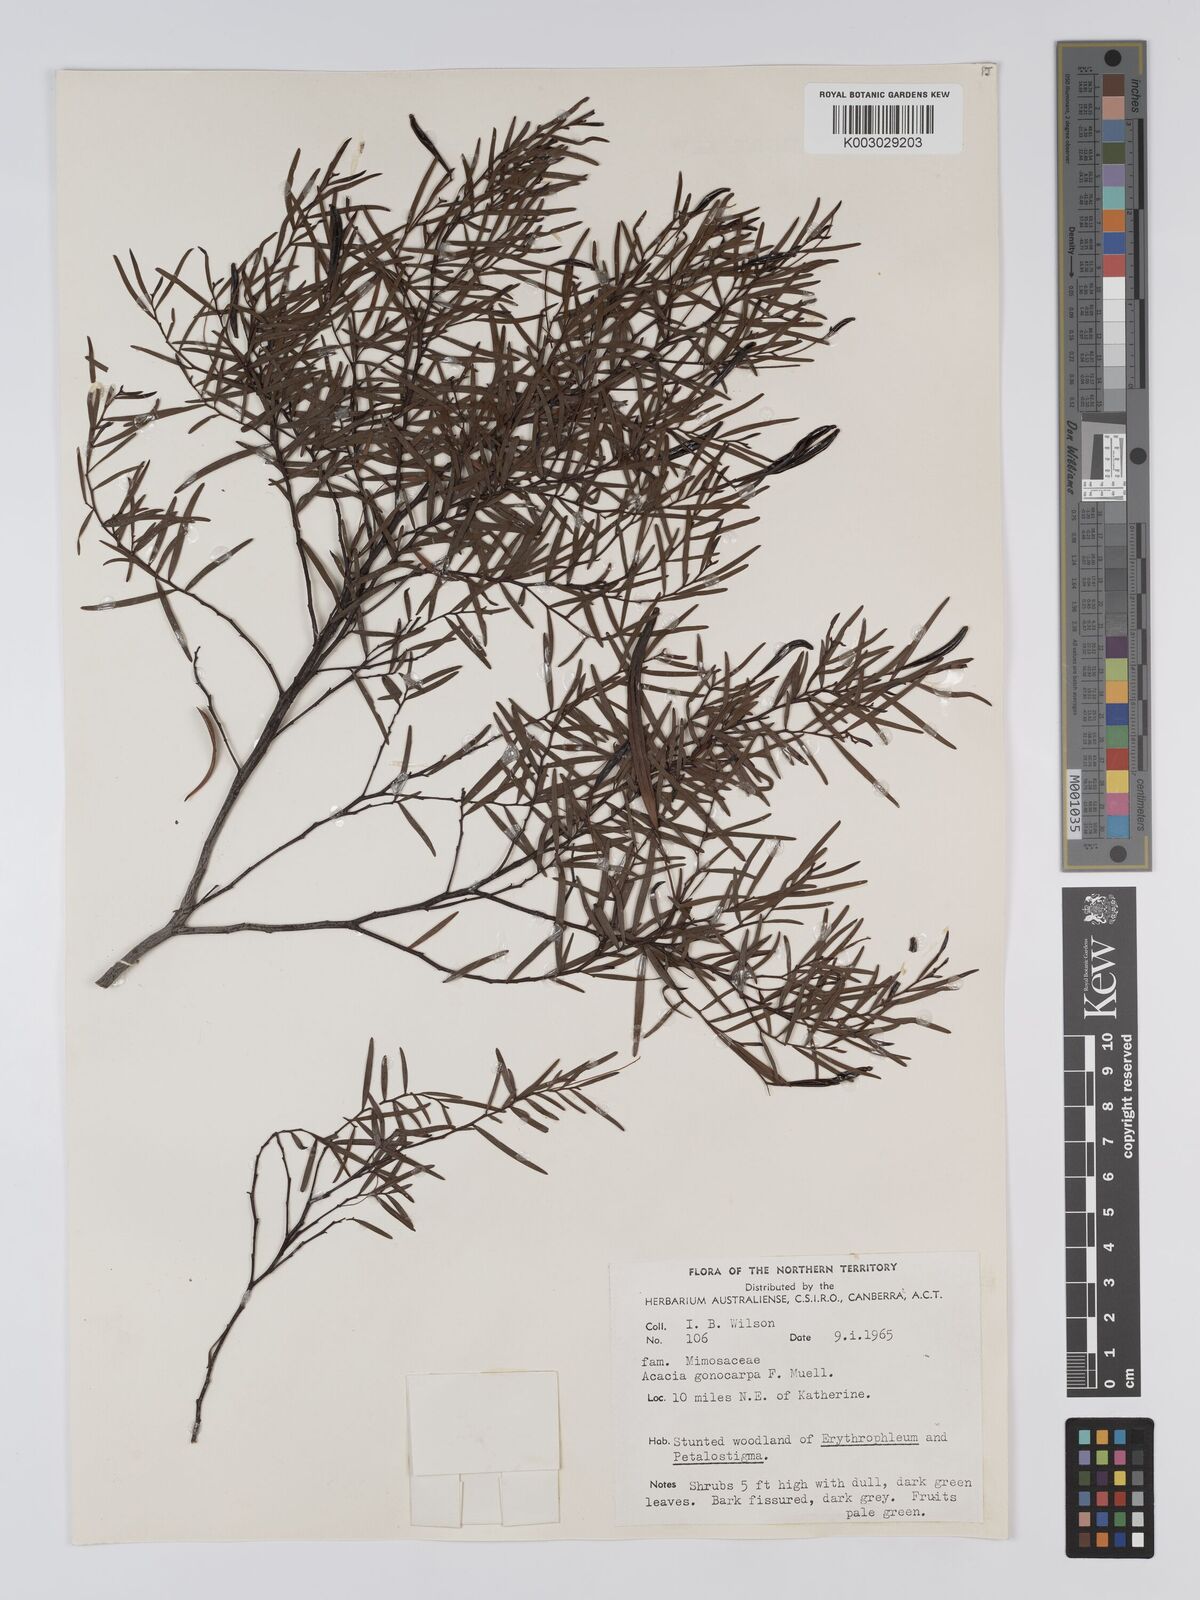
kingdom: Plantae
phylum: Tracheophyta
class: Magnoliopsida
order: Fabales
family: Fabaceae
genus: Acacia
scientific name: Acacia gonocarpa
